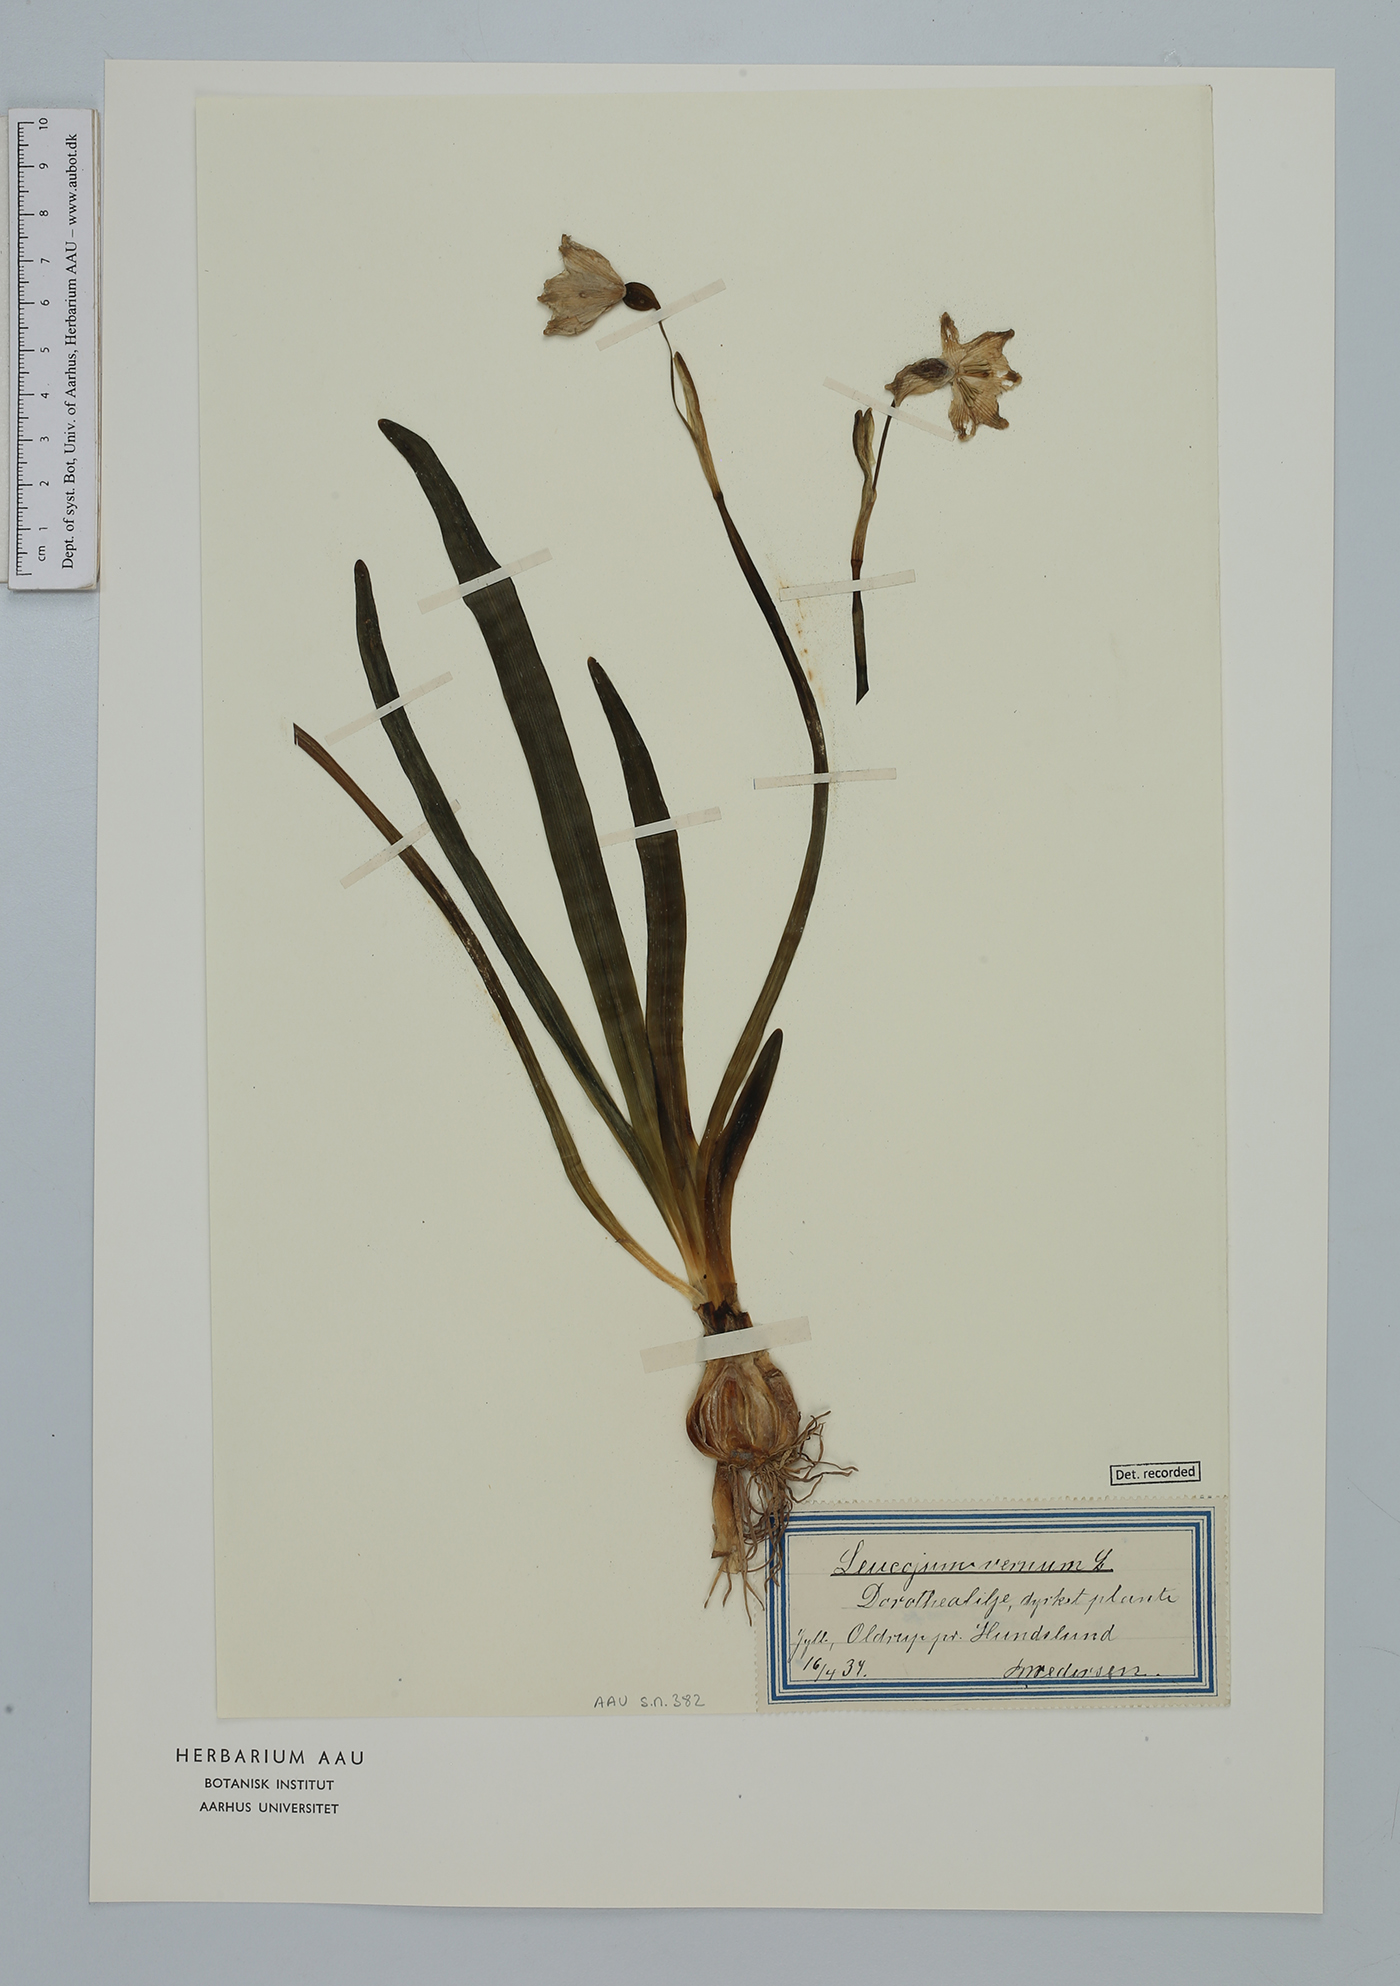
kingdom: Plantae
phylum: Tracheophyta
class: Liliopsida
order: Asparagales
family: Amaryllidaceae
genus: Leucojum
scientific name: Leucojum vernum
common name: Spring snowflake
